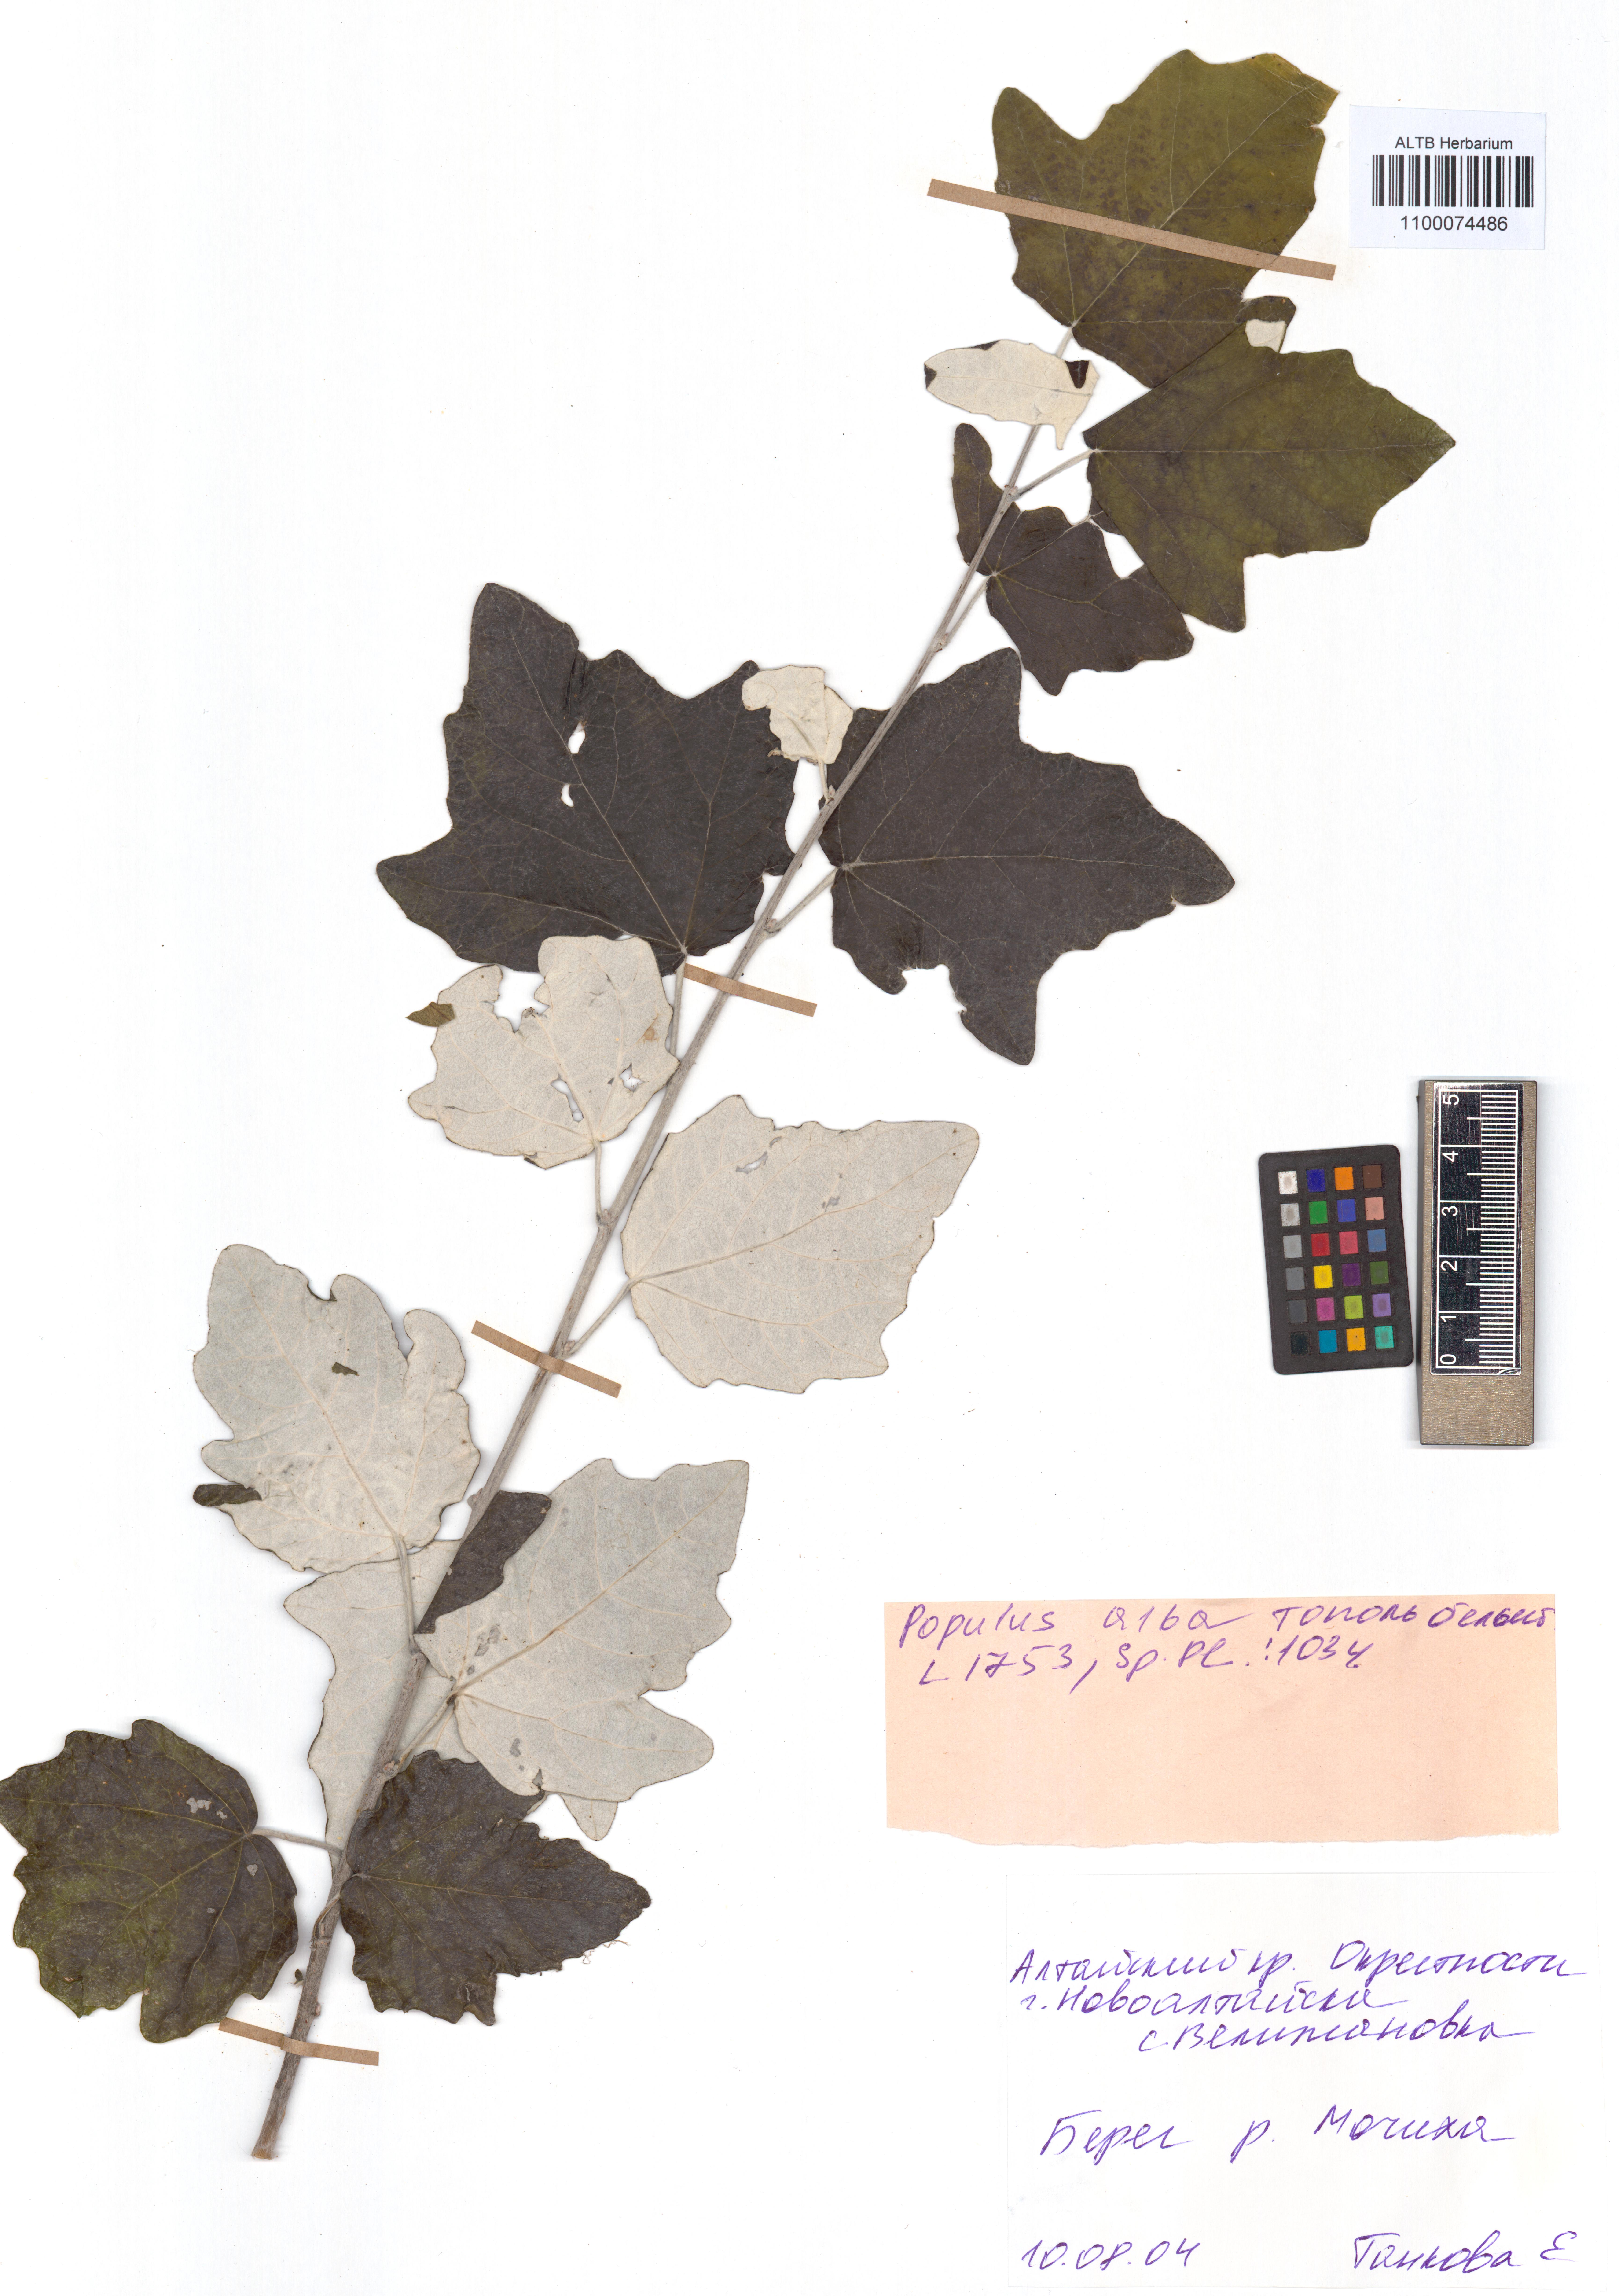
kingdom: Plantae
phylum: Tracheophyta
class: Magnoliopsida
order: Malpighiales
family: Salicaceae
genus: Populus
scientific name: Populus alba
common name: White poplar
